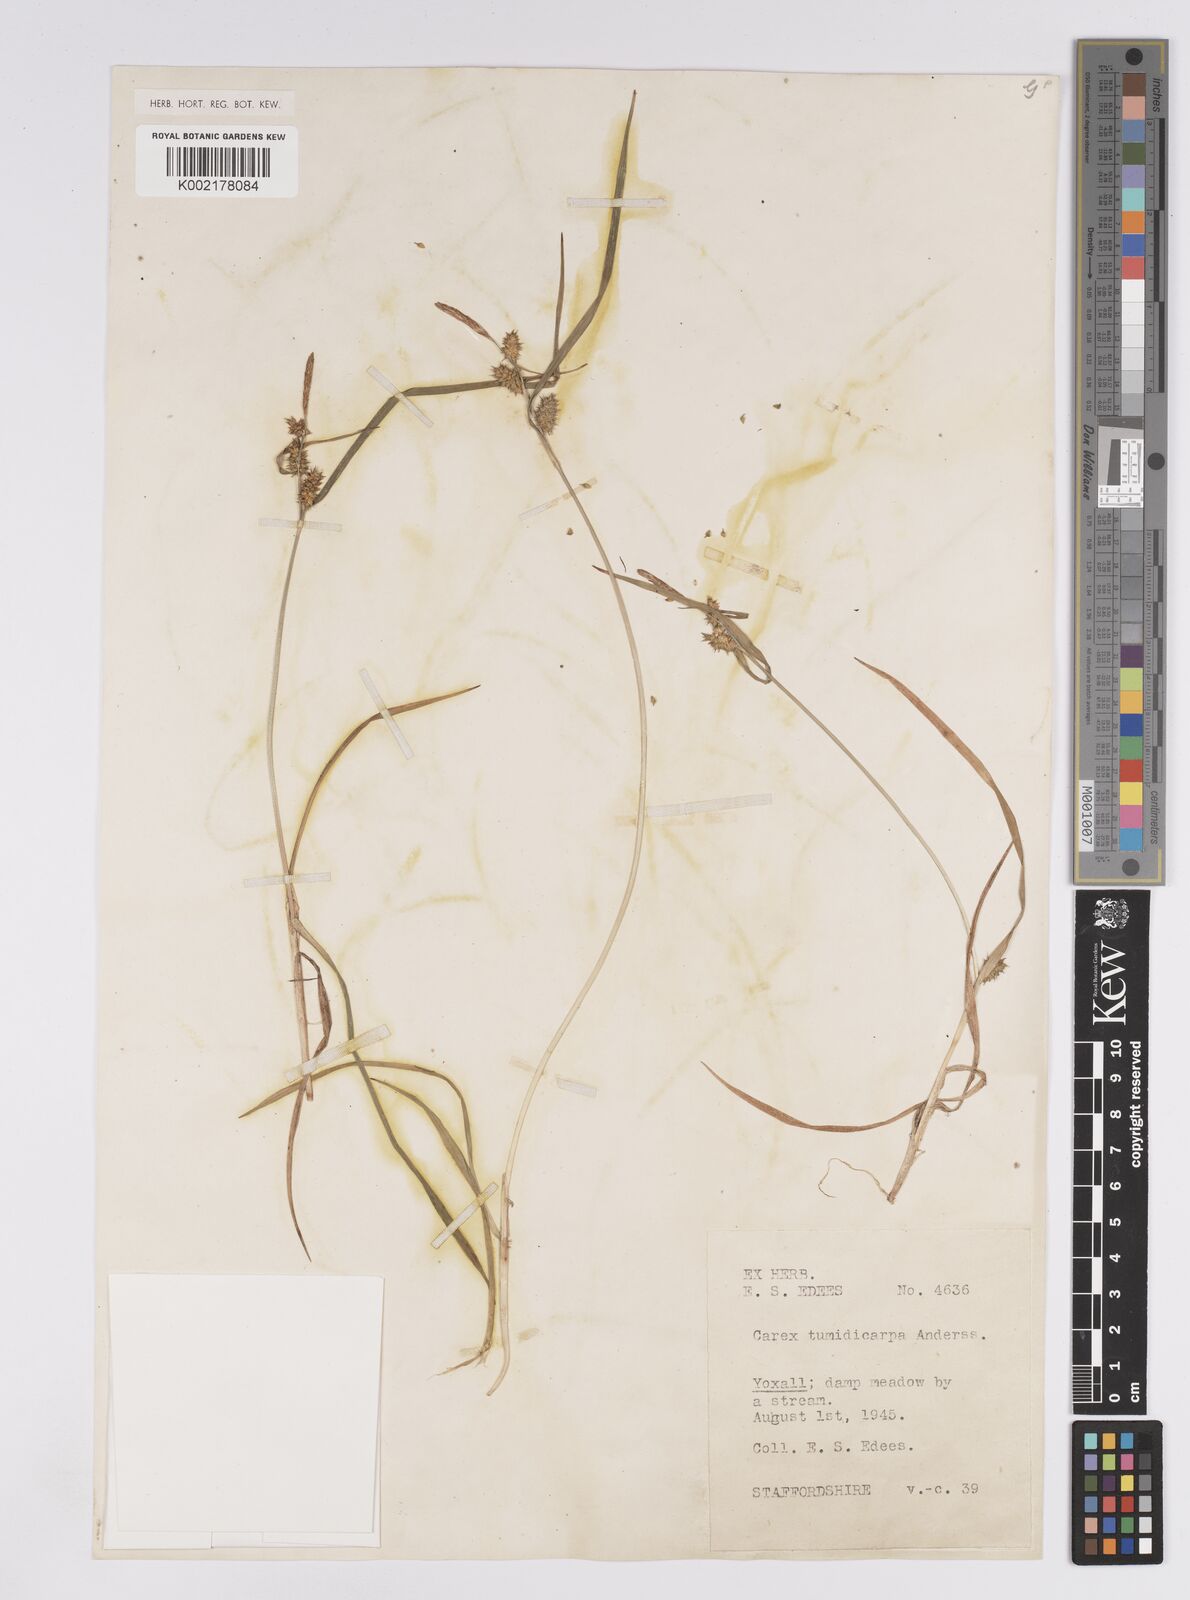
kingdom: Plantae
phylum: Tracheophyta
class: Liliopsida
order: Poales
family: Cyperaceae
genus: Carex
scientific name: Carex demissa
